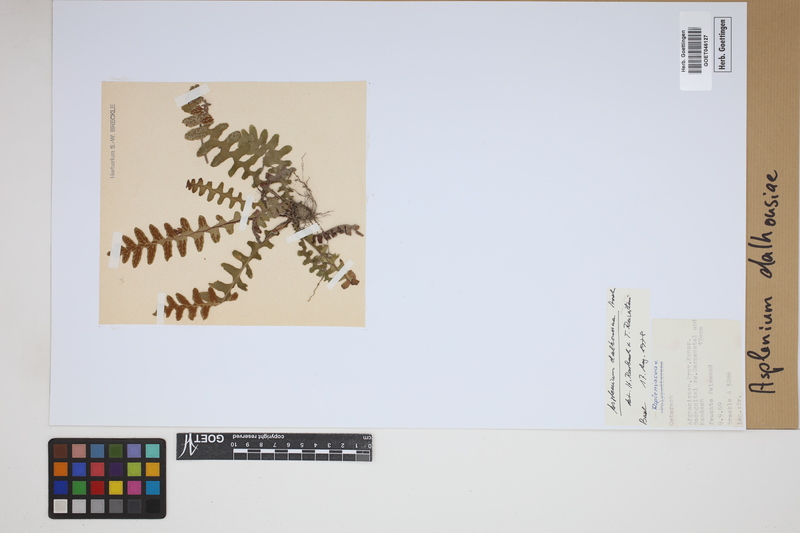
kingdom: Plantae
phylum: Tracheophyta
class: Polypodiopsida
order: Polypodiales
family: Aspleniaceae
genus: Asplenium
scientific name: Asplenium dalhousieae
